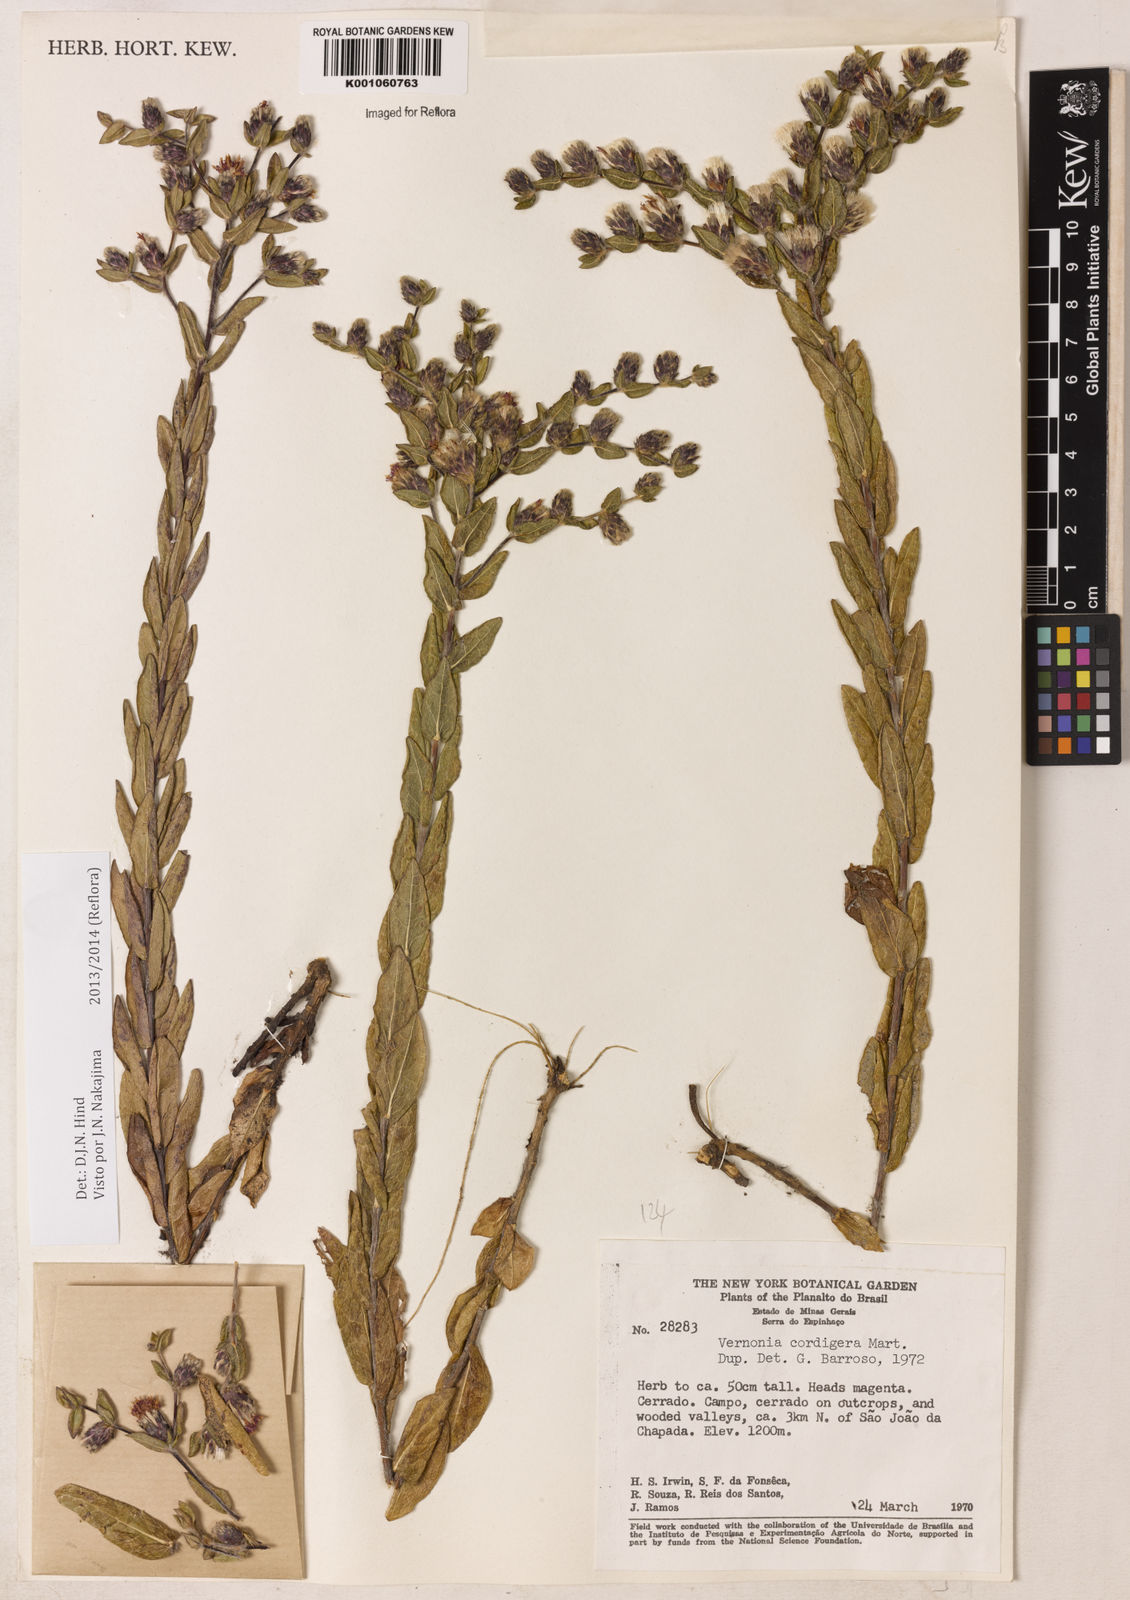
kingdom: Plantae
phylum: Tracheophyta
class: Magnoliopsida
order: Asterales
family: Asteraceae
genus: Lepidaploa
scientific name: Lepidaploa lilacina
